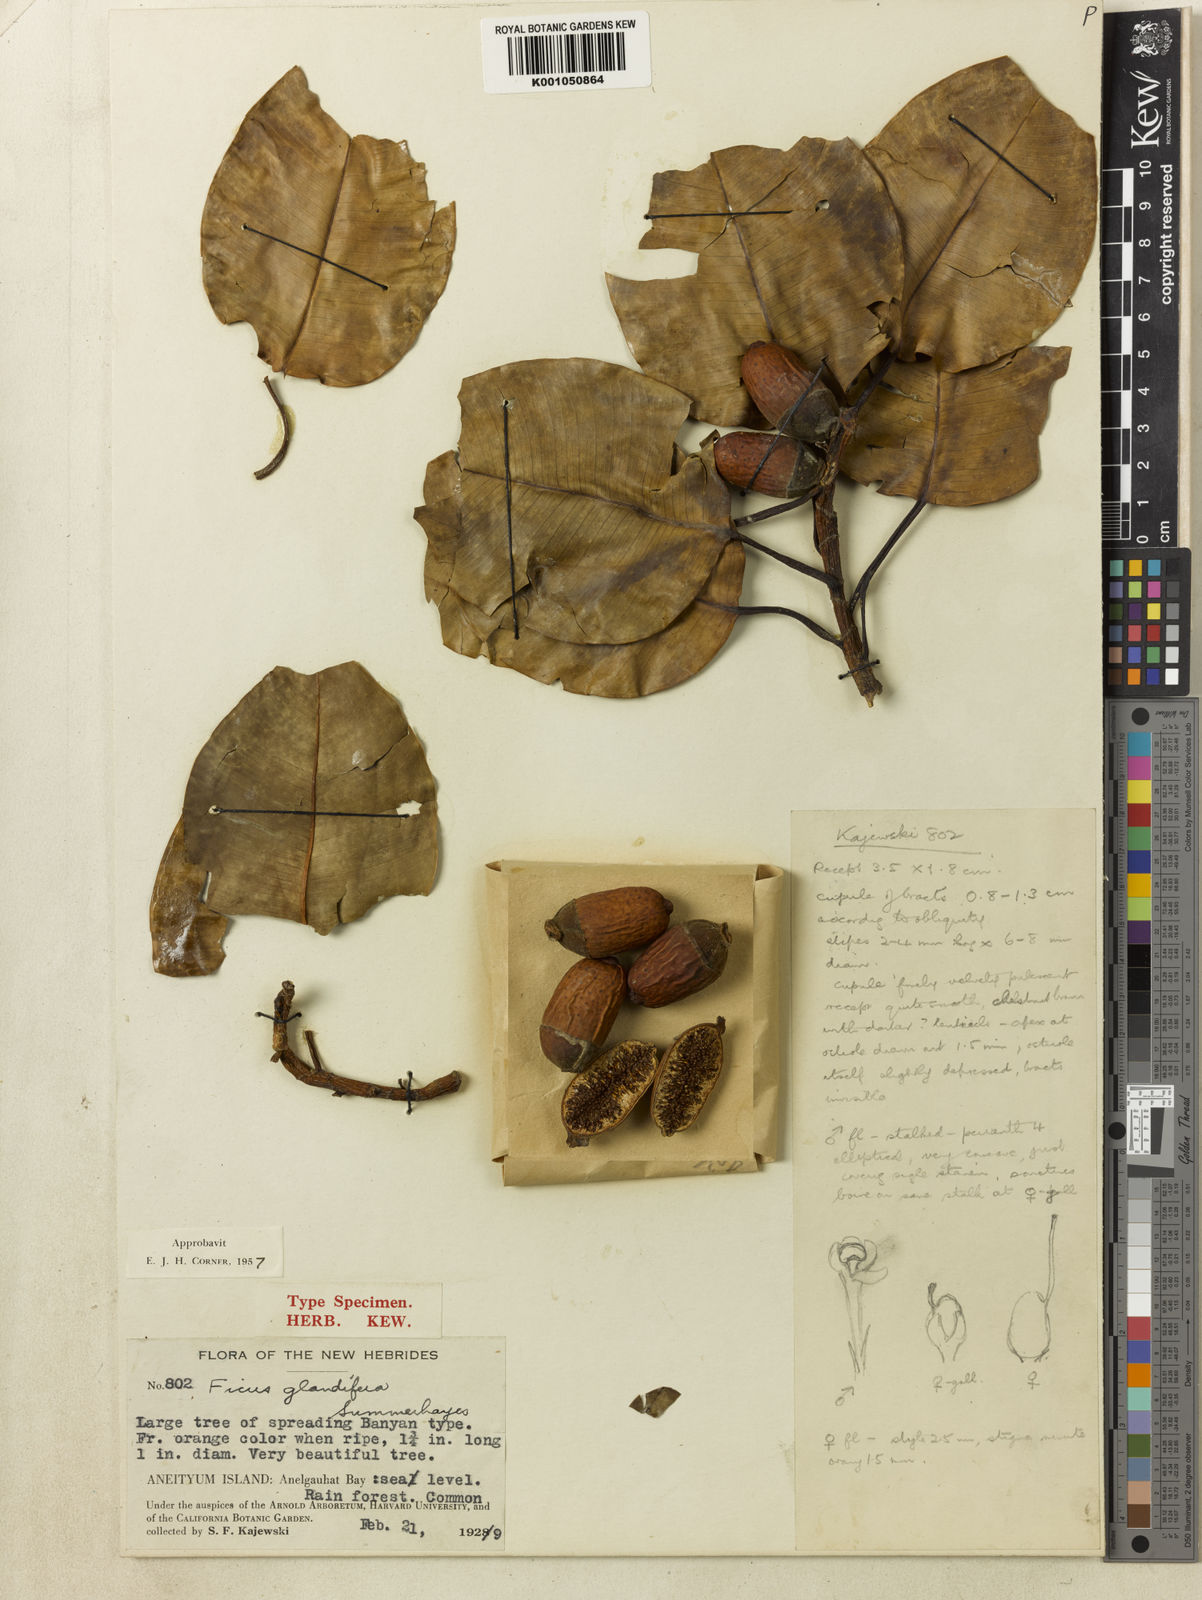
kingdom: Plantae
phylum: Tracheophyta
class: Magnoliopsida
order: Rosales
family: Moraceae
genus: Ficus
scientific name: Ficus glandifera
